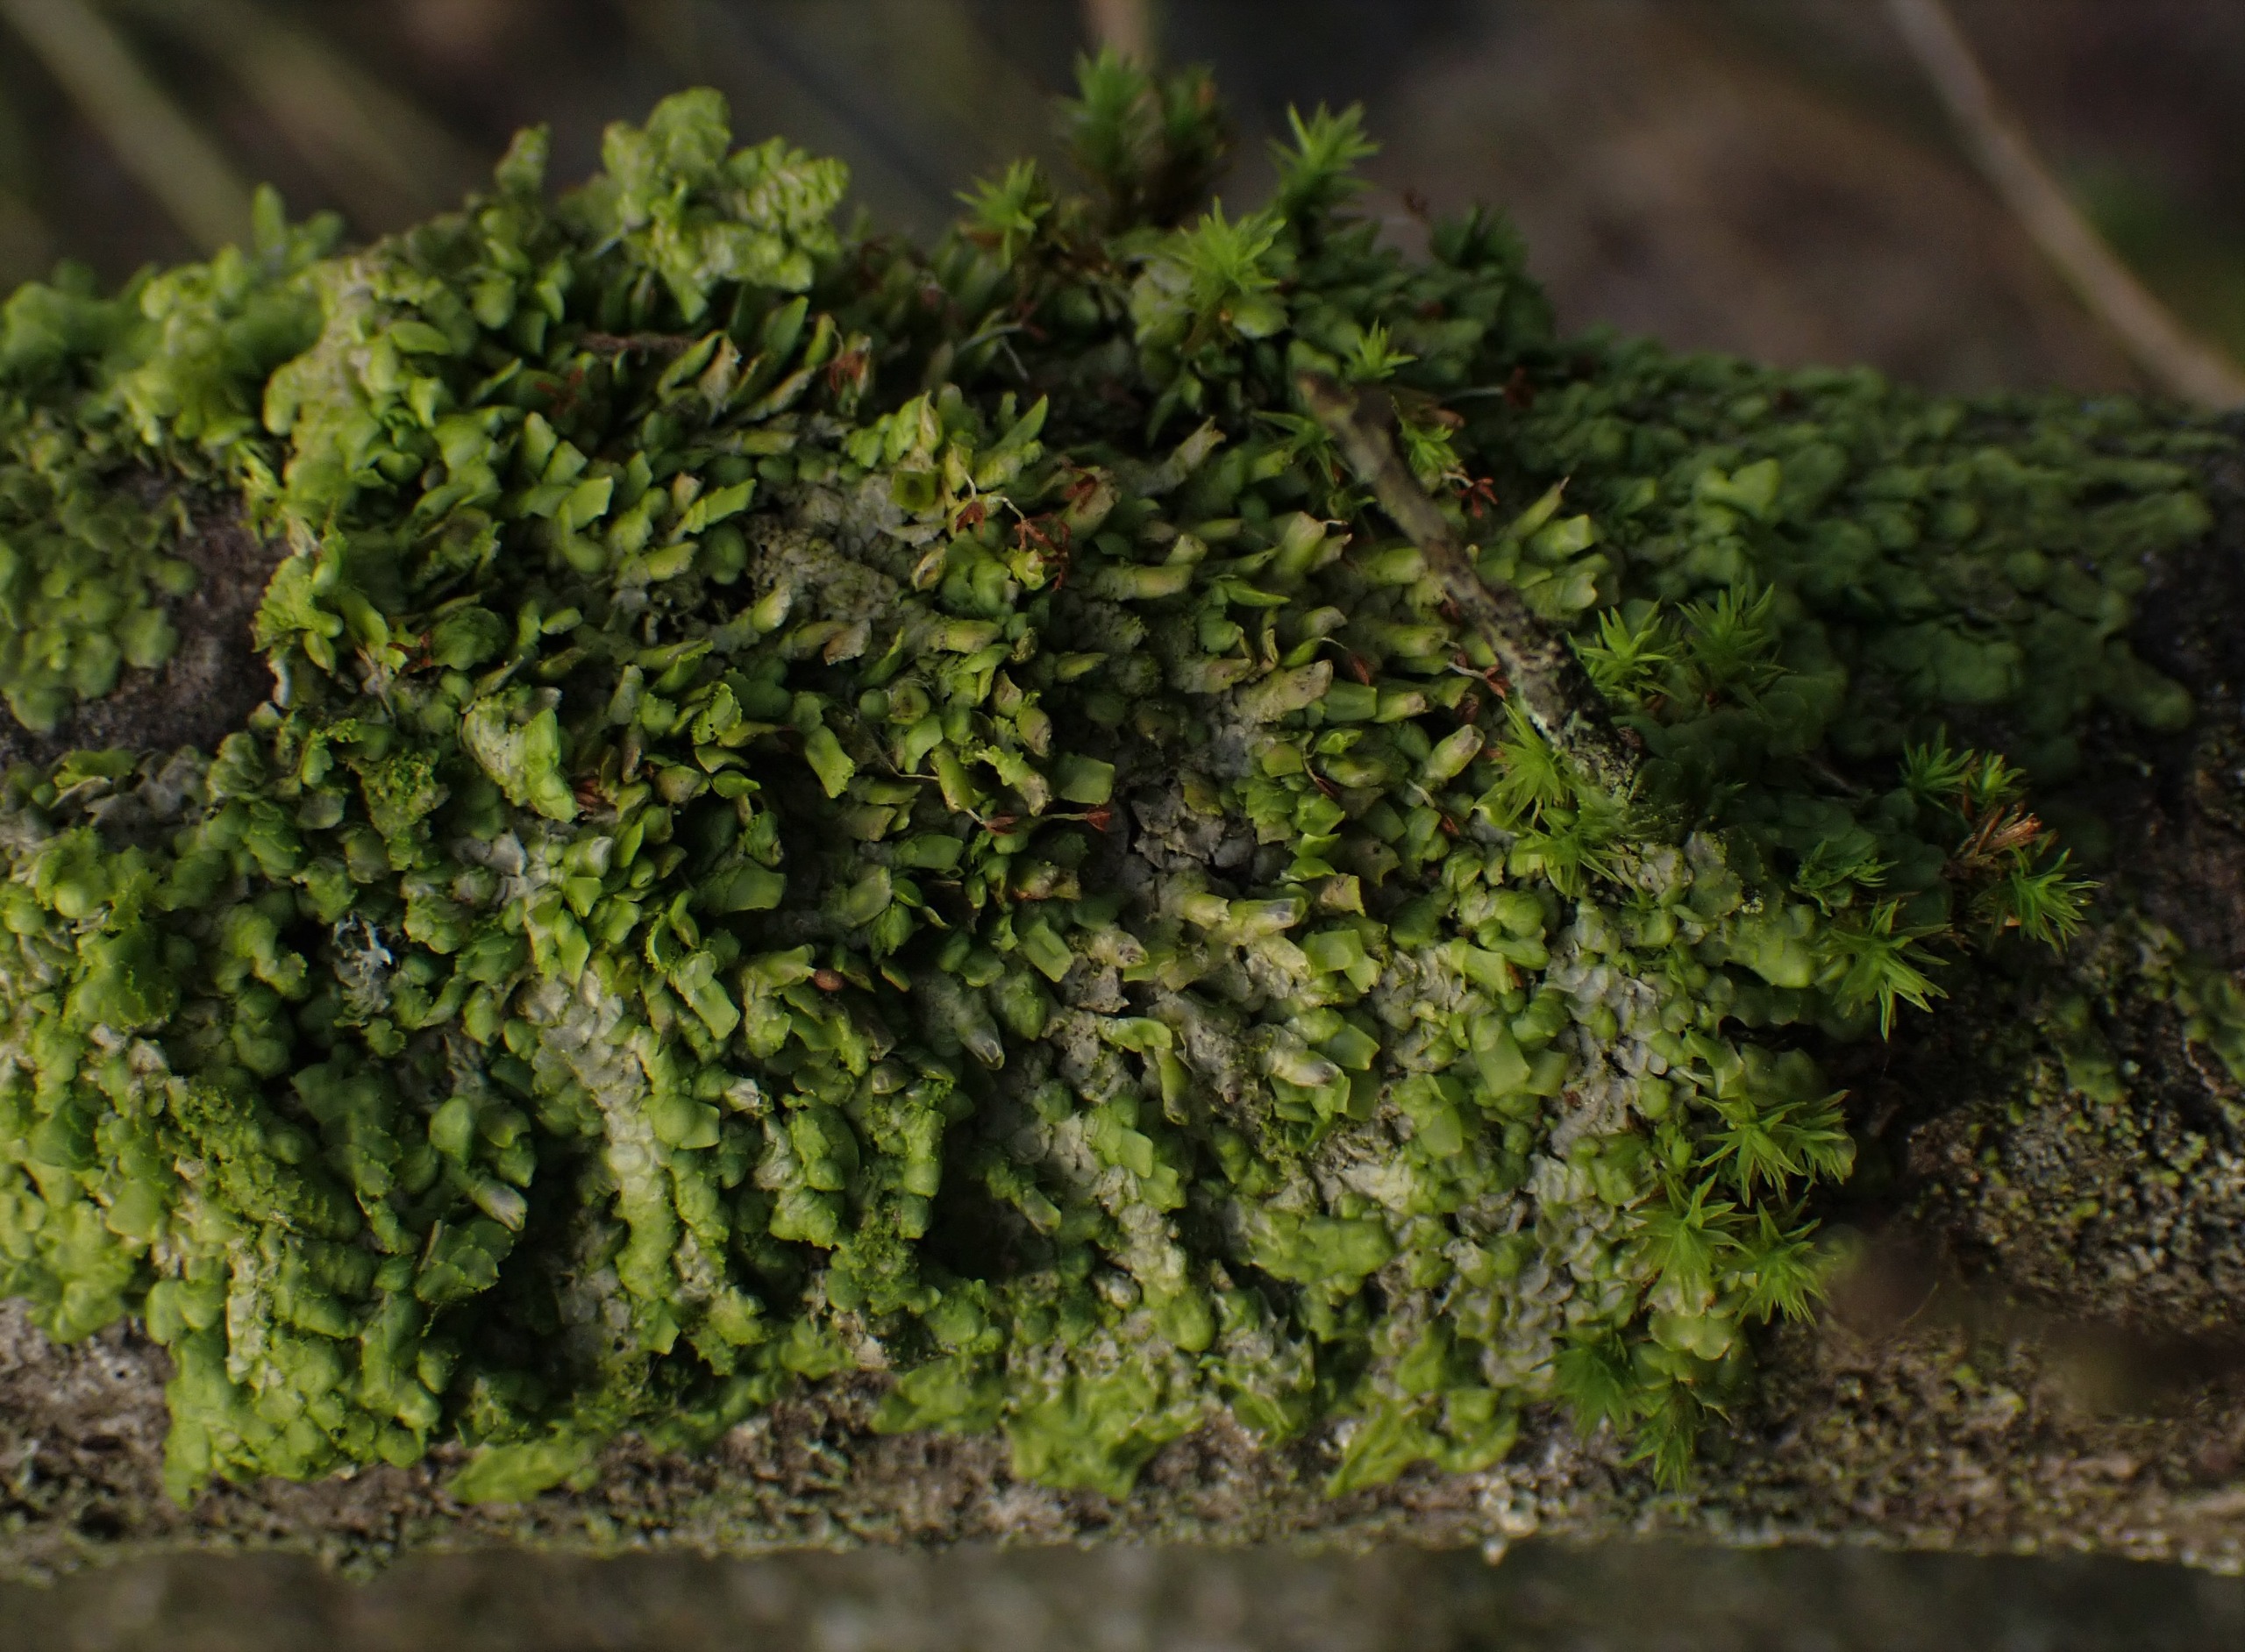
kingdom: Plantae
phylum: Marchantiophyta
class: Jungermanniopsida
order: Porellales
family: Radulaceae
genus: Radula
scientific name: Radula complanata
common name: Almindelig spartelmos
